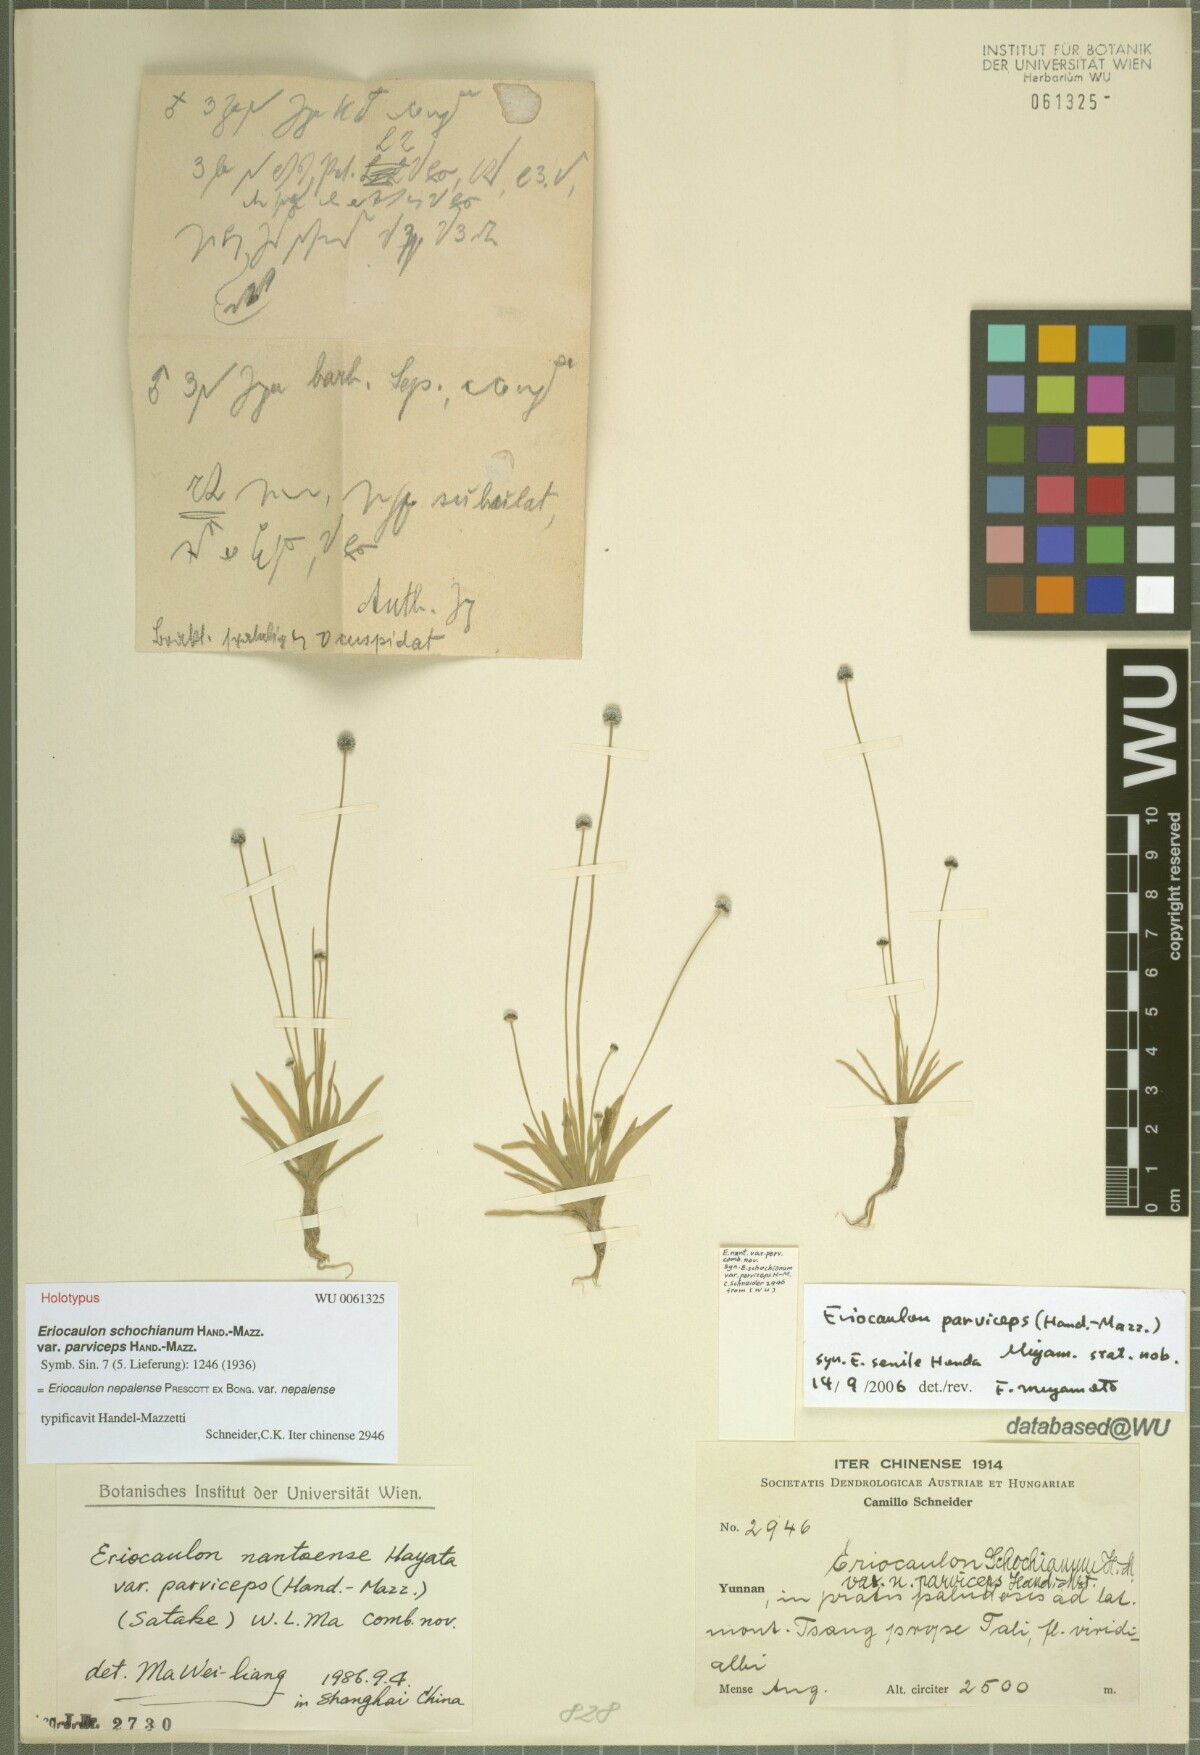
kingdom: Plantae
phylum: Tracheophyta
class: Liliopsida
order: Poales
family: Eriocaulaceae
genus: Eriocaulon
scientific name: Eriocaulon nepalense
